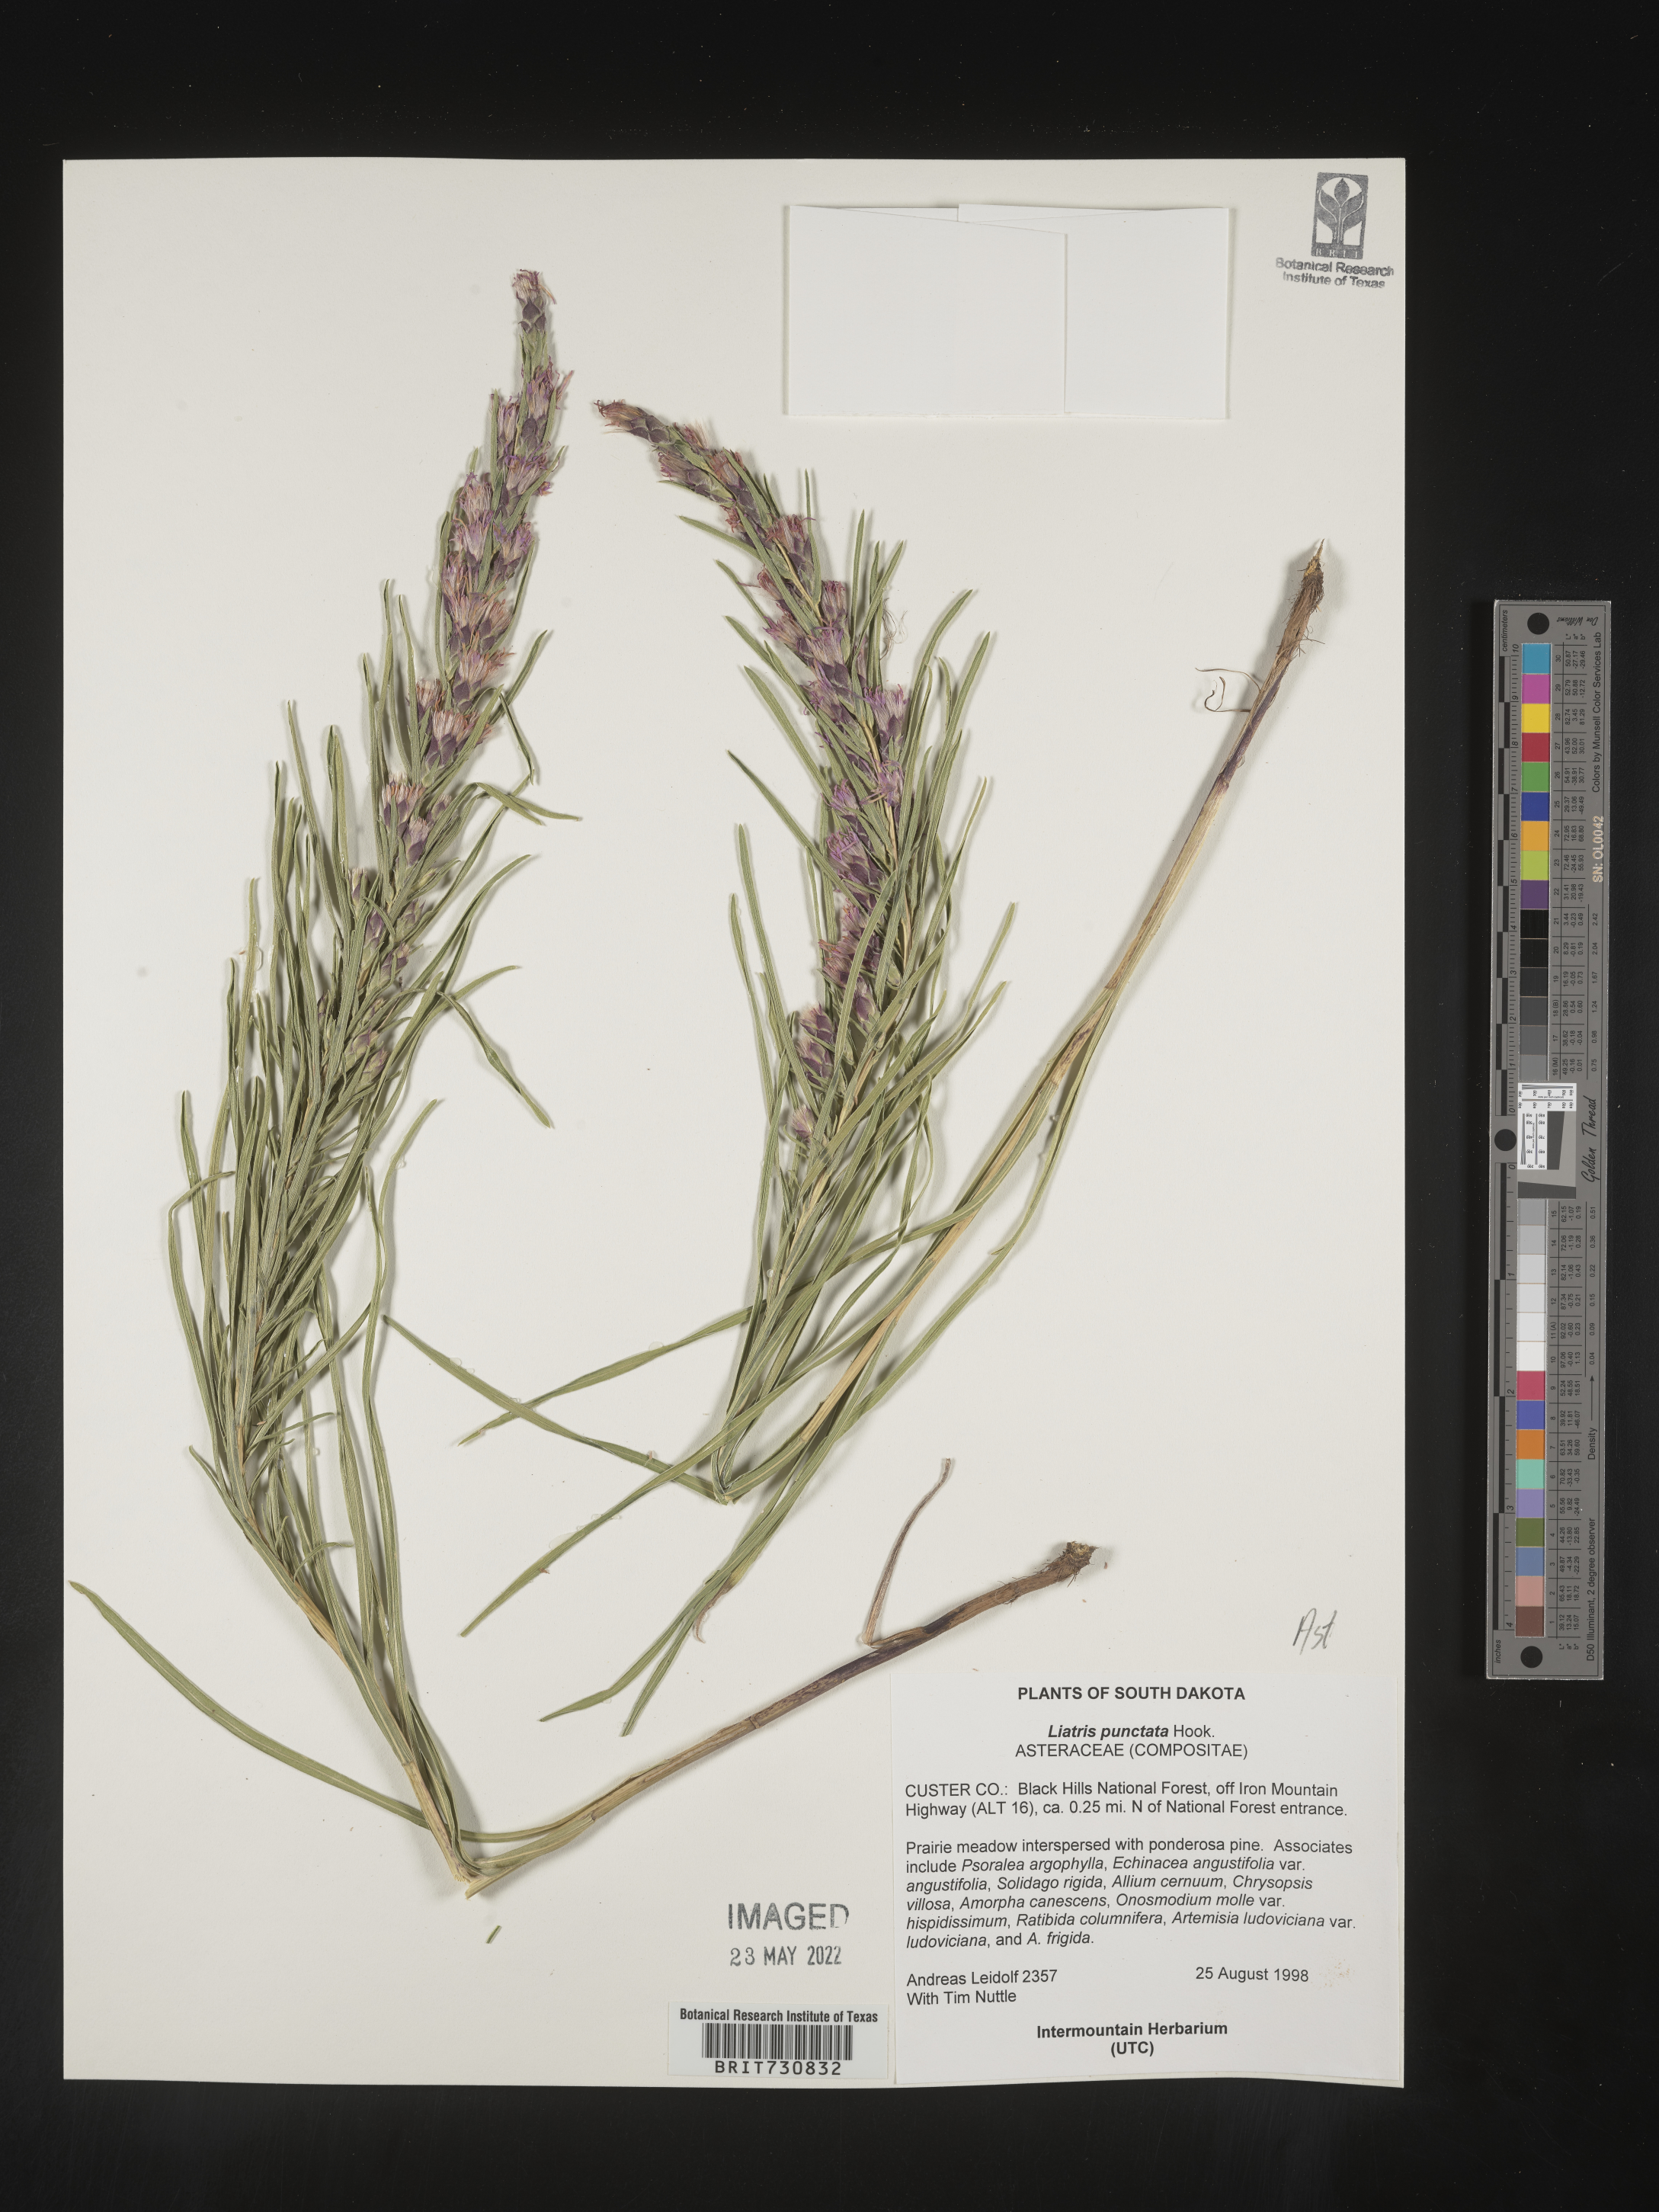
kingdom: Plantae
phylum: Tracheophyta
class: Magnoliopsida
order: Asterales
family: Asteraceae
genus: Liatris
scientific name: Liatris punctata
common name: Dotted gayfeather
